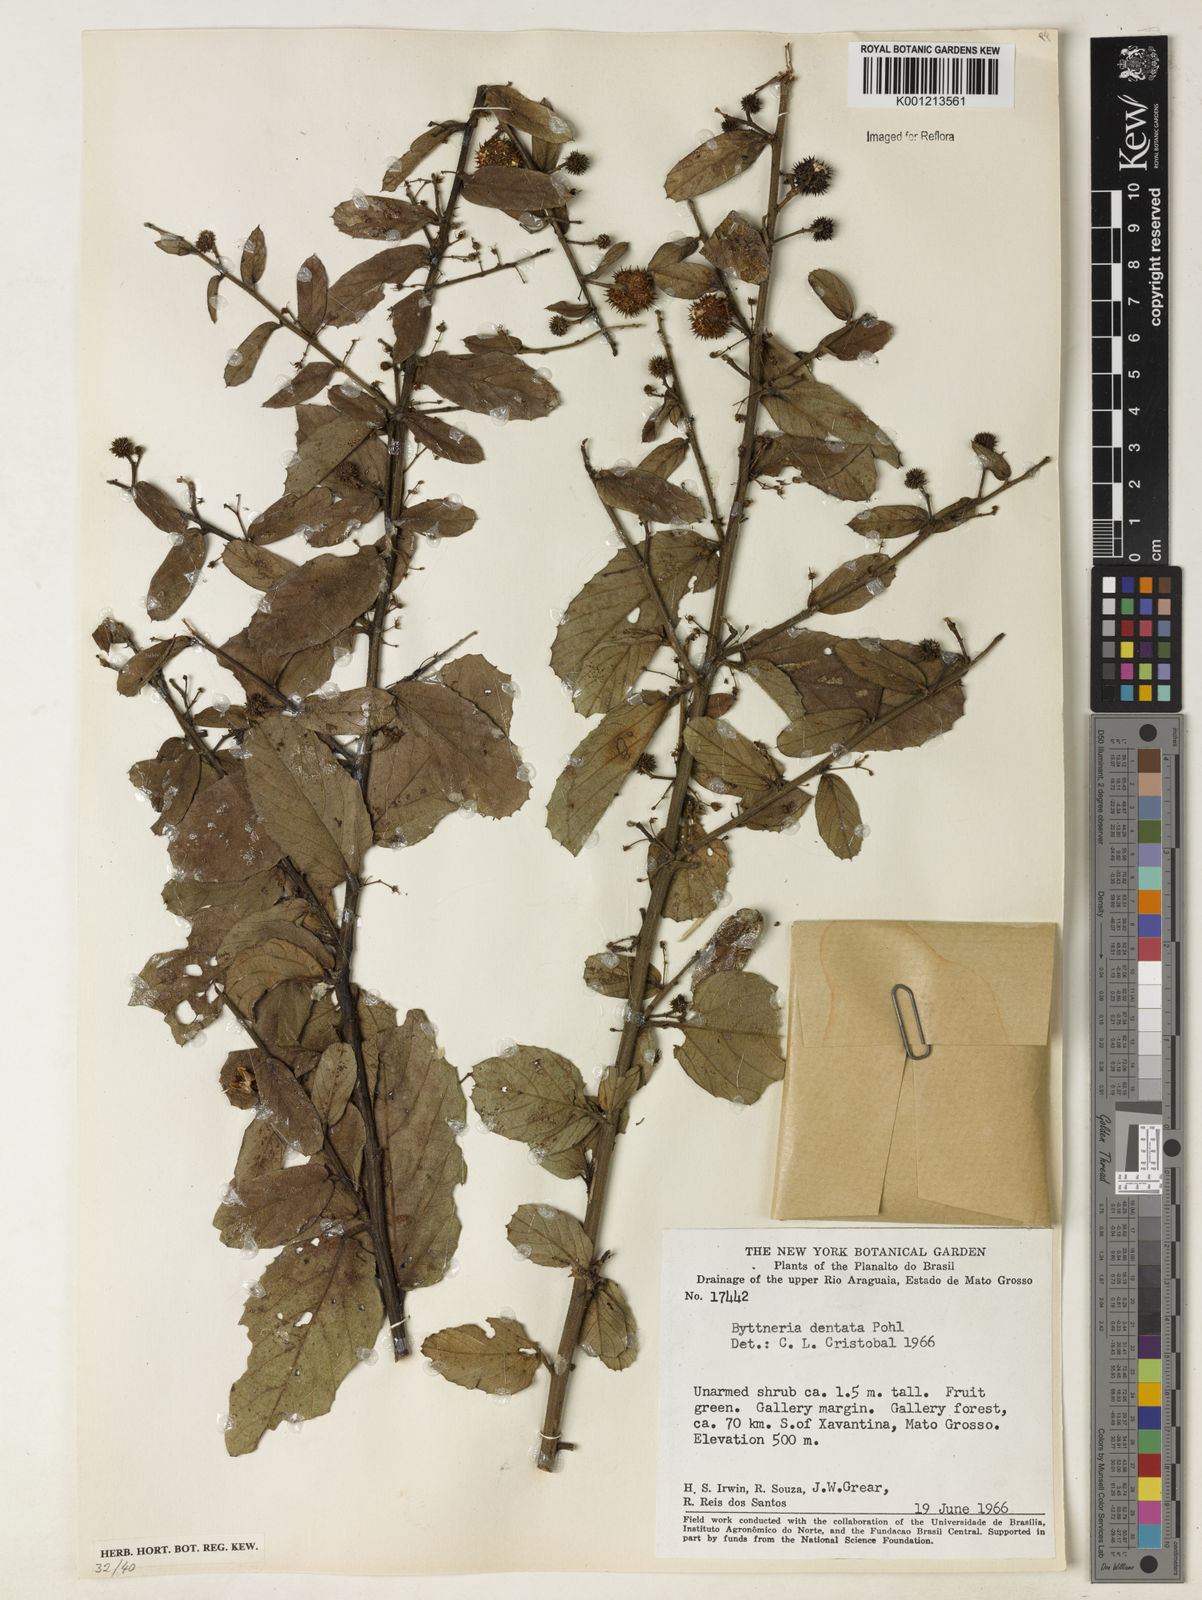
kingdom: Plantae
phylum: Tracheophyta
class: Magnoliopsida
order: Malvales
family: Malvaceae
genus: Byttneria
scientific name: Byttneria
